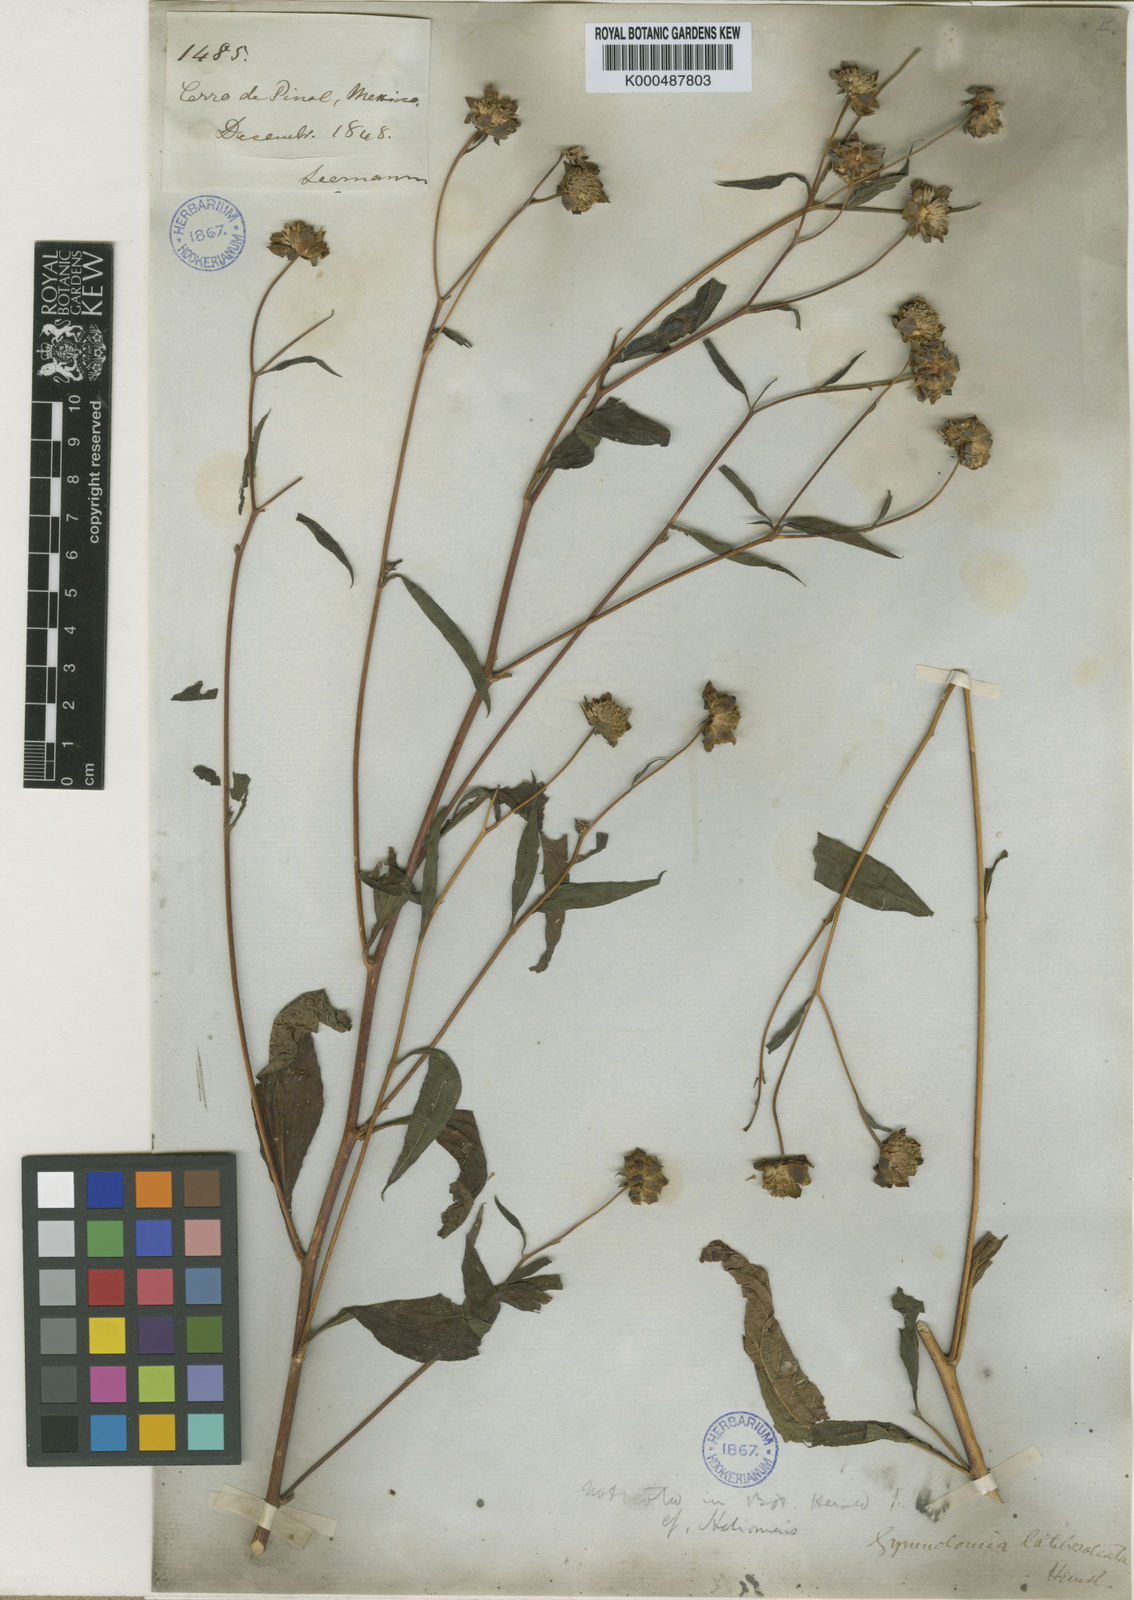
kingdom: Plantae
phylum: Tracheophyta
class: Magnoliopsida
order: Asterales
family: Asteraceae
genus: Aldama
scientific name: Aldama latibracteata
